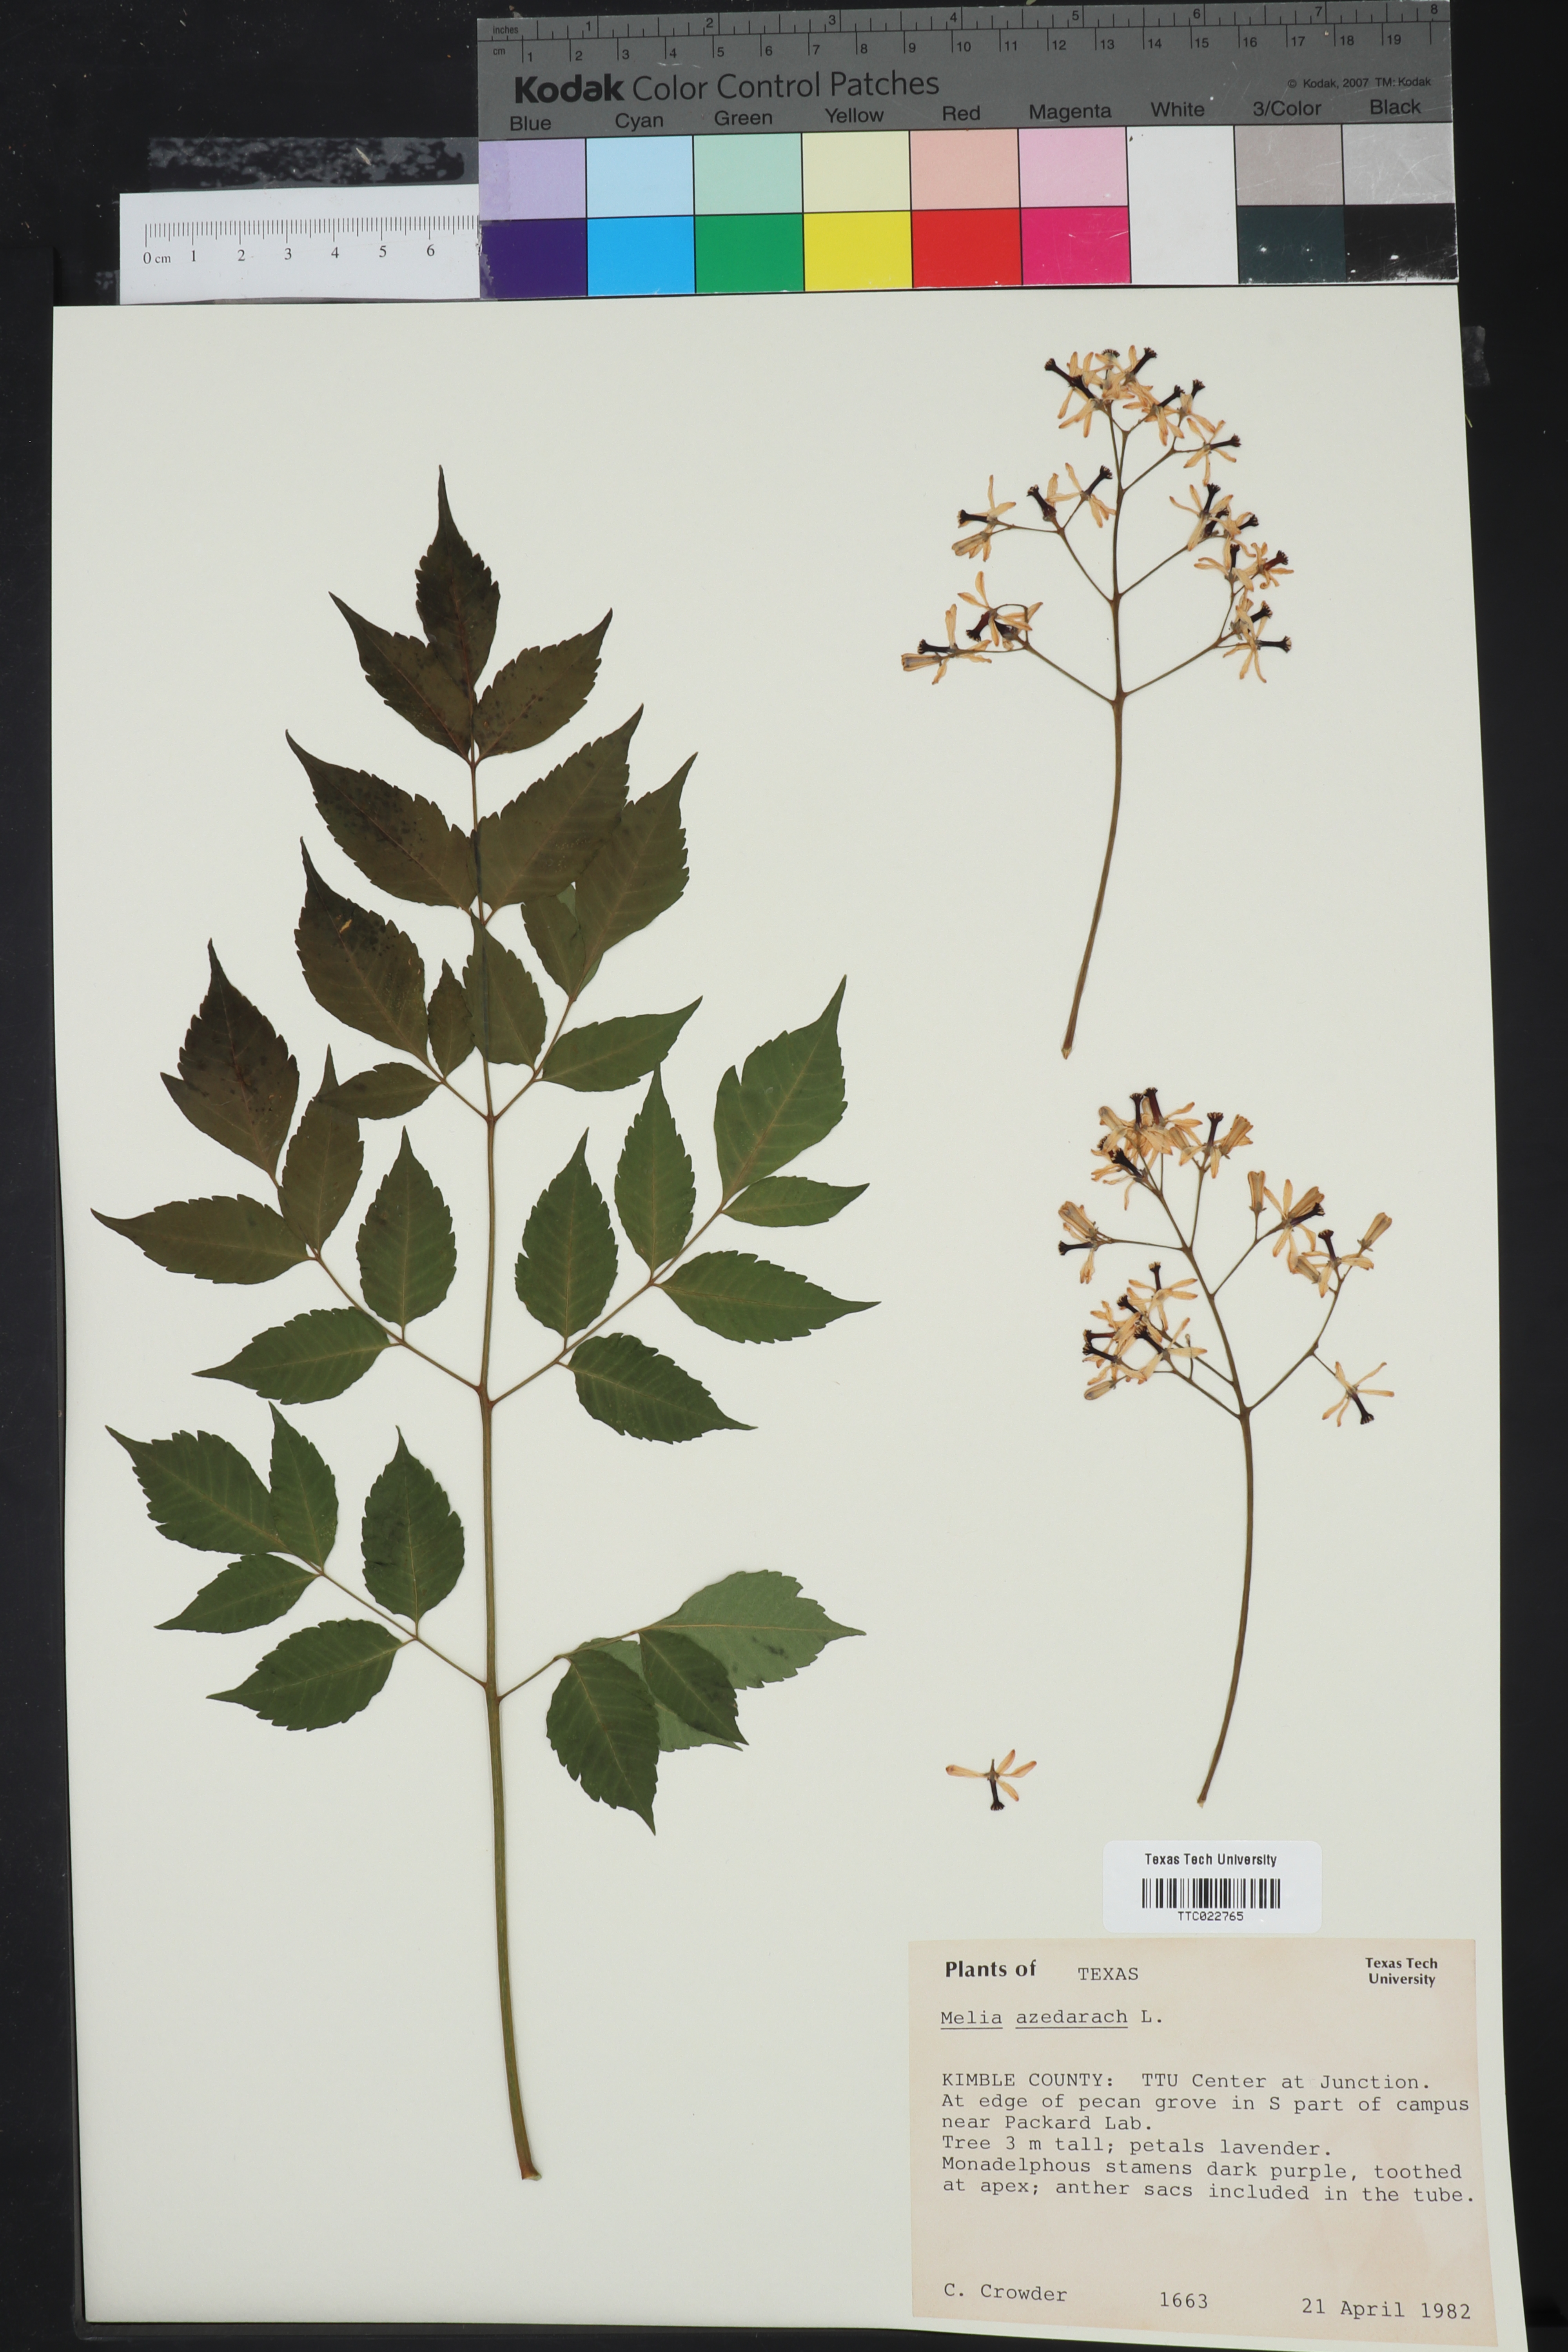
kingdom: Plantae
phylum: Tracheophyta
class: Magnoliopsida
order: Sapindales
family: Meliaceae
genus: Melia
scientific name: Melia azedarach
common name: Chinaberrytree
